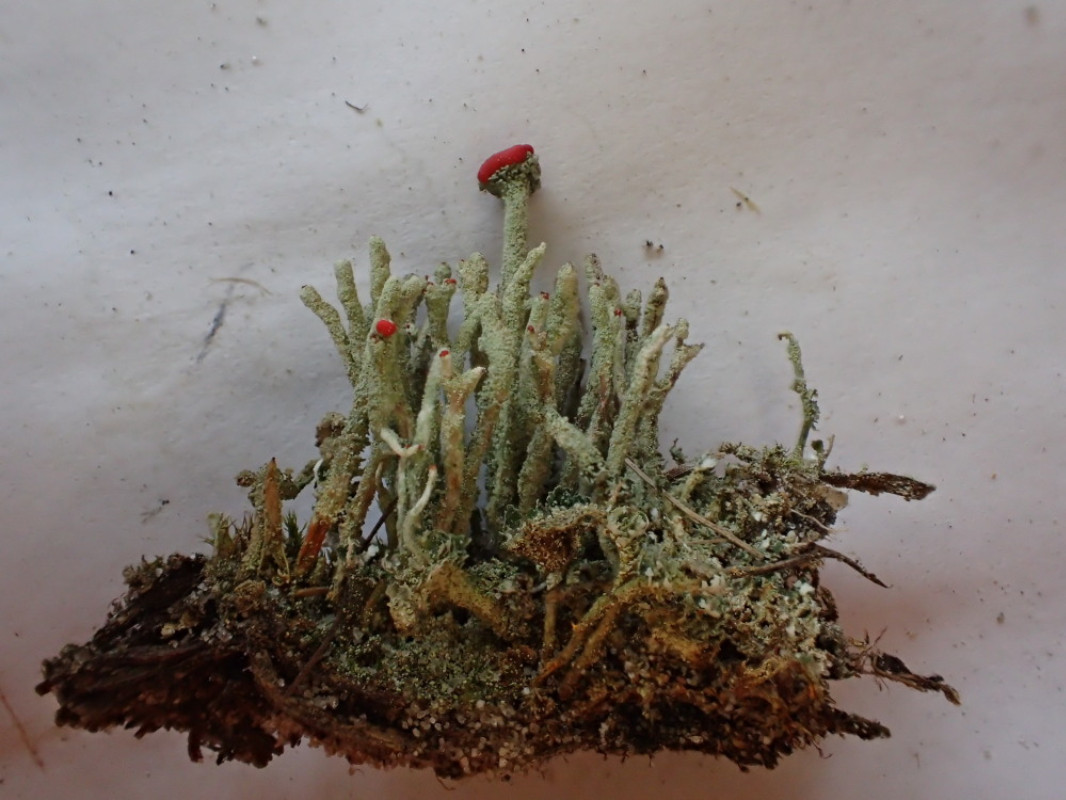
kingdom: Fungi
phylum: Ascomycota
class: Lecanoromycetes
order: Lecanorales
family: Cladoniaceae
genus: Cladonia
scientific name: Cladonia floerkeana
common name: lakrød bægerlav
